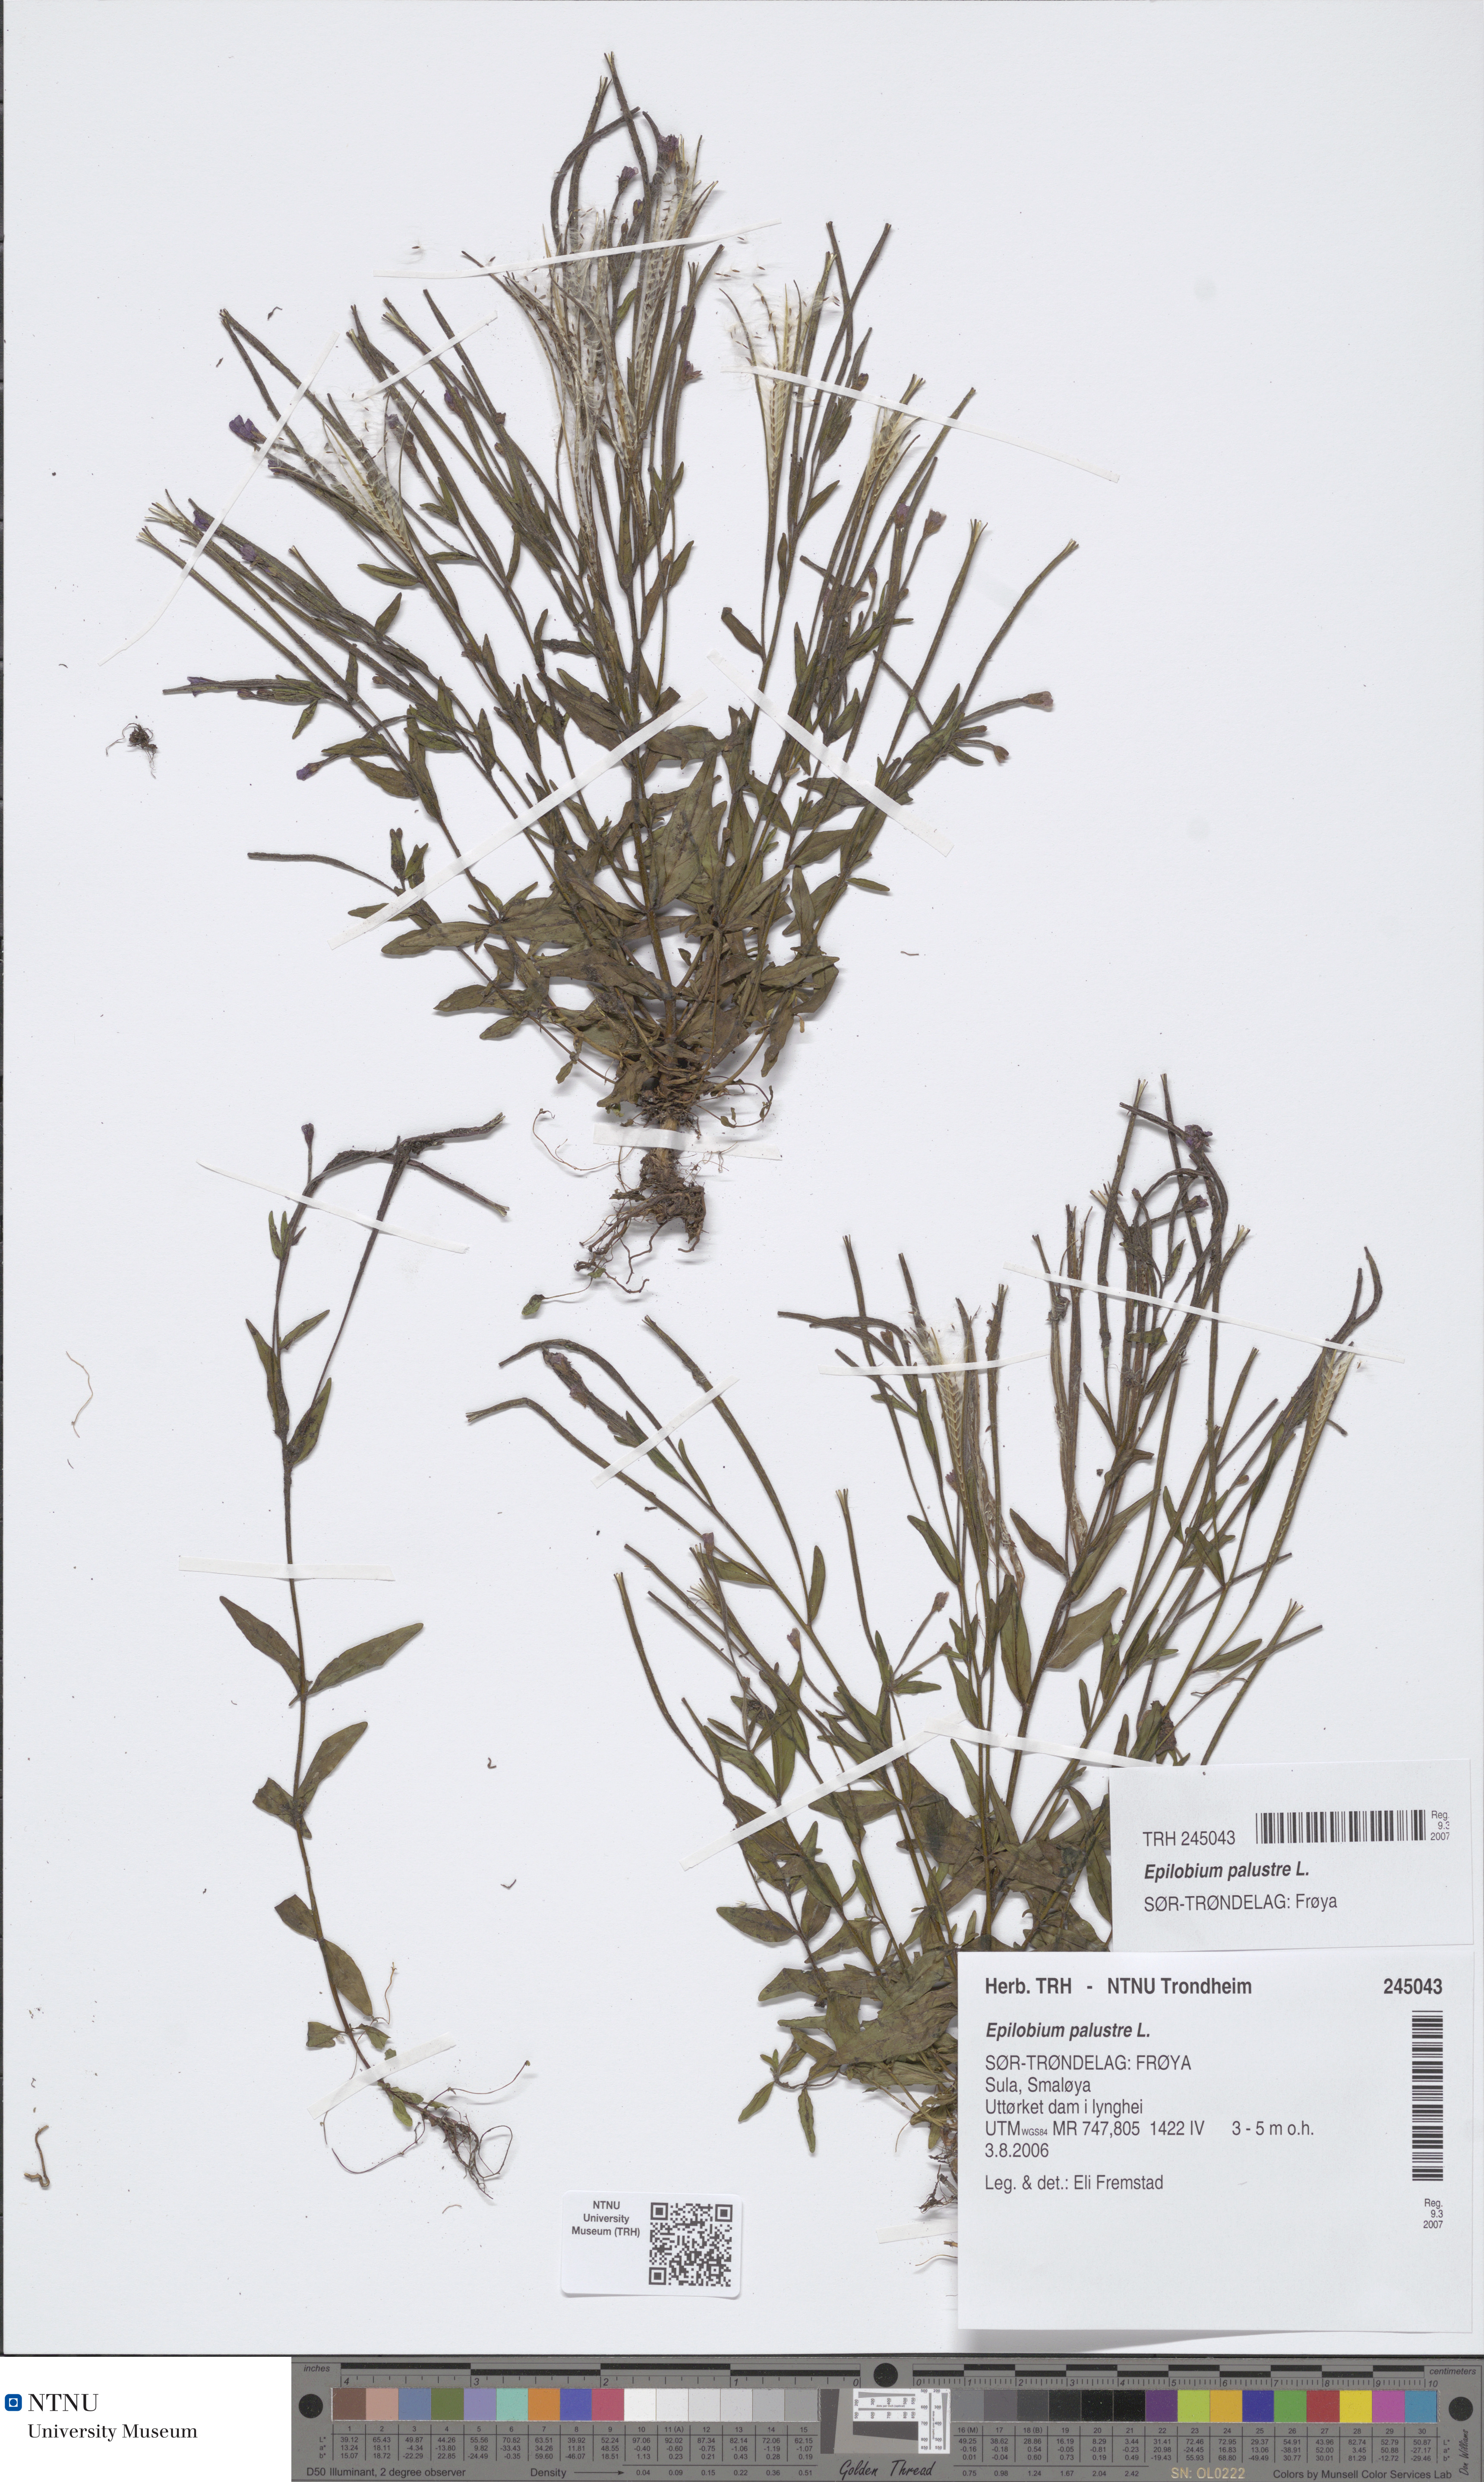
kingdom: Plantae
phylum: Tracheophyta
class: Magnoliopsida
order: Myrtales
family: Onagraceae
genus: Epilobium
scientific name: Epilobium palustre
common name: Marsh willowherb
